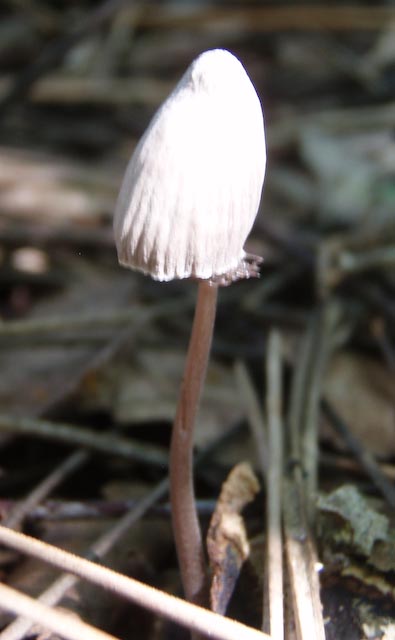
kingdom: Fungi
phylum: Basidiomycota
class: Agaricomycetes
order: Agaricales
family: Mycenaceae
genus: Mycena
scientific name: Mycena leptocephala
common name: klor-huesvamp
